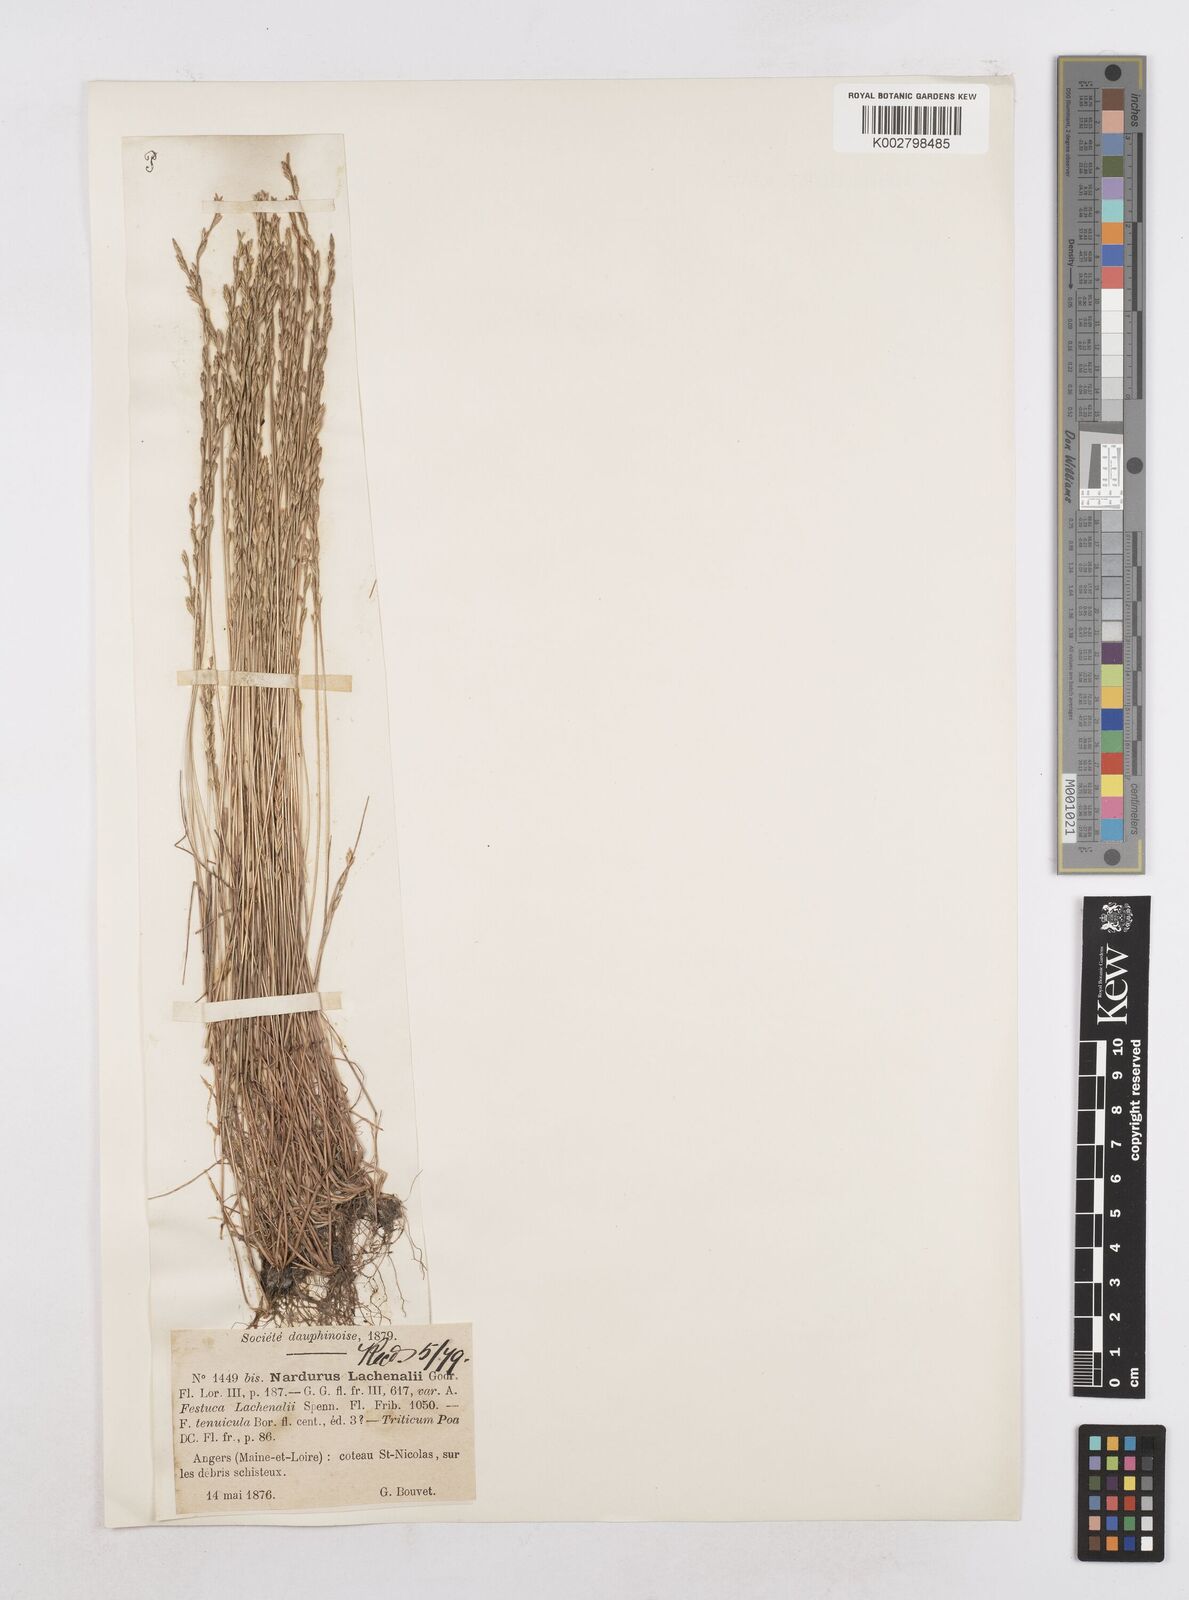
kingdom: Plantae
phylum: Tracheophyta
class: Liliopsida
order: Poales
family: Poaceae
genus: Festuca
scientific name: Festuca lachenalii
